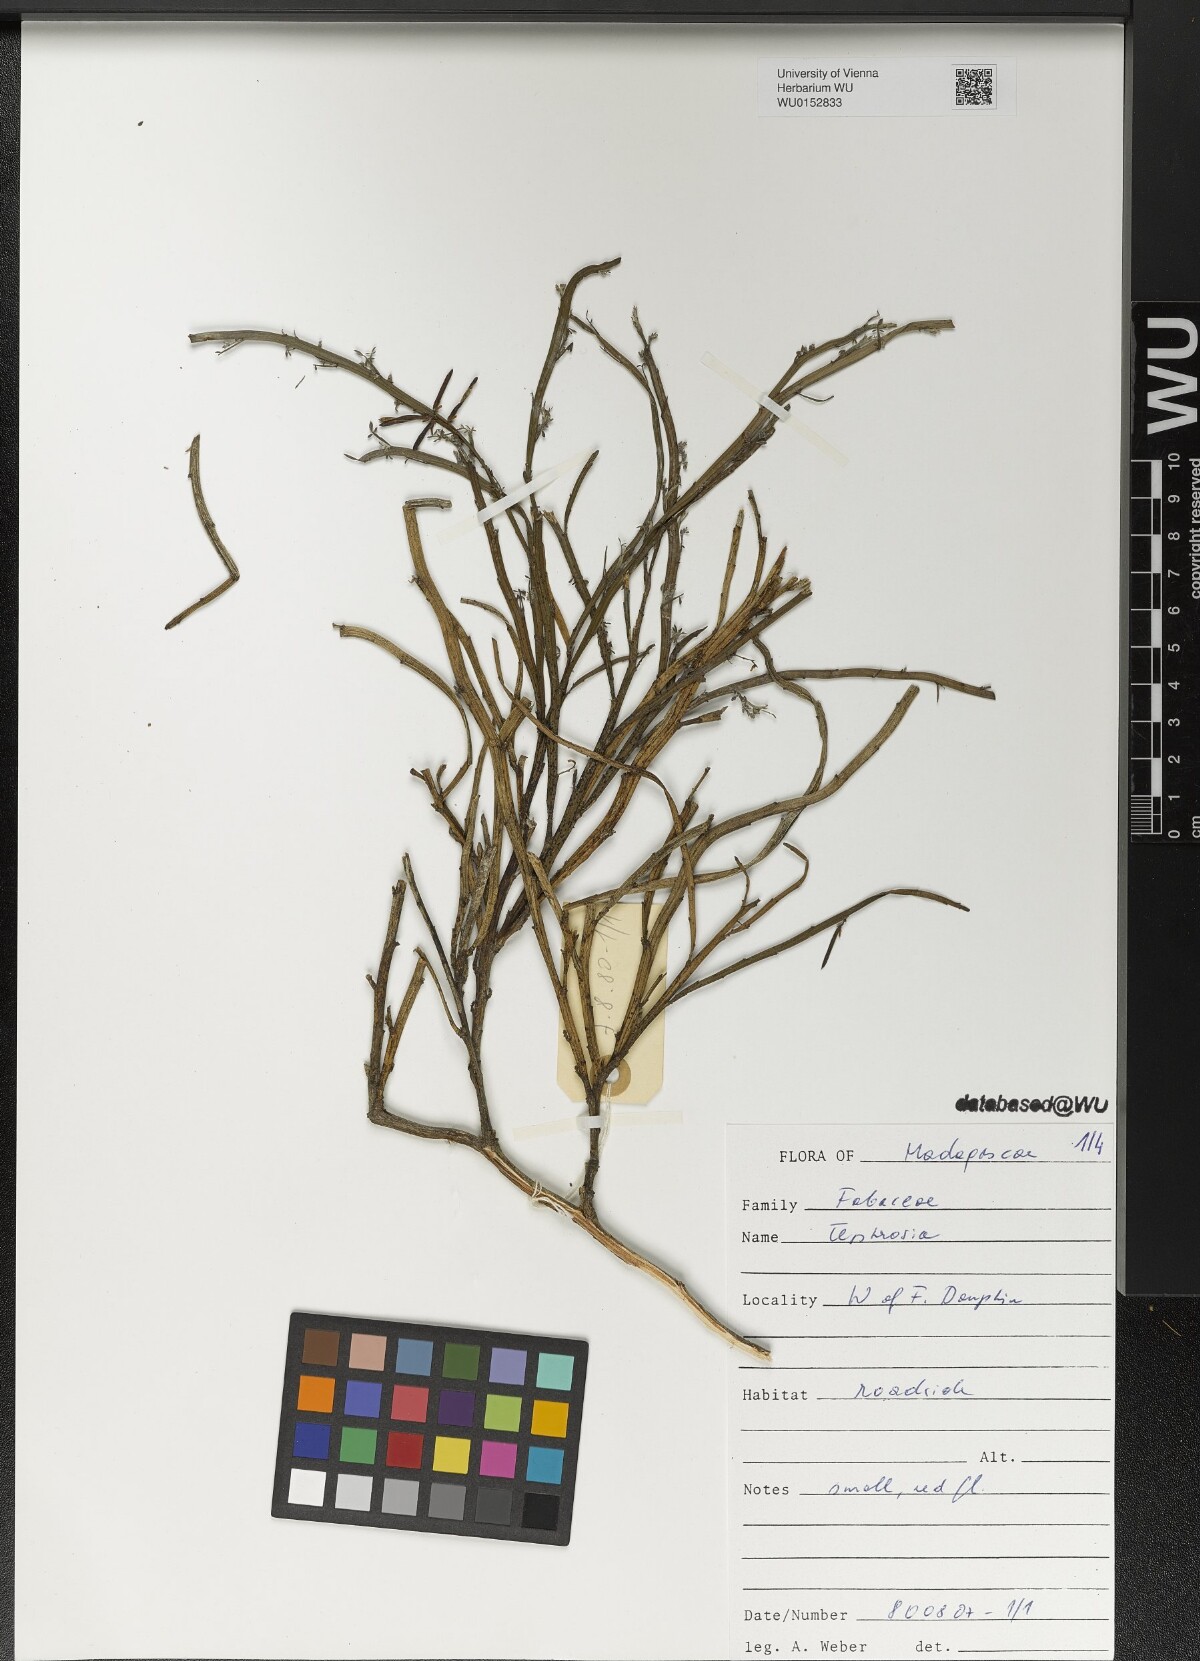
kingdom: Plantae
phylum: Tracheophyta
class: Magnoliopsida
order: Fabales
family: Fabaceae
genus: Tephrosia
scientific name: Tephrosia
